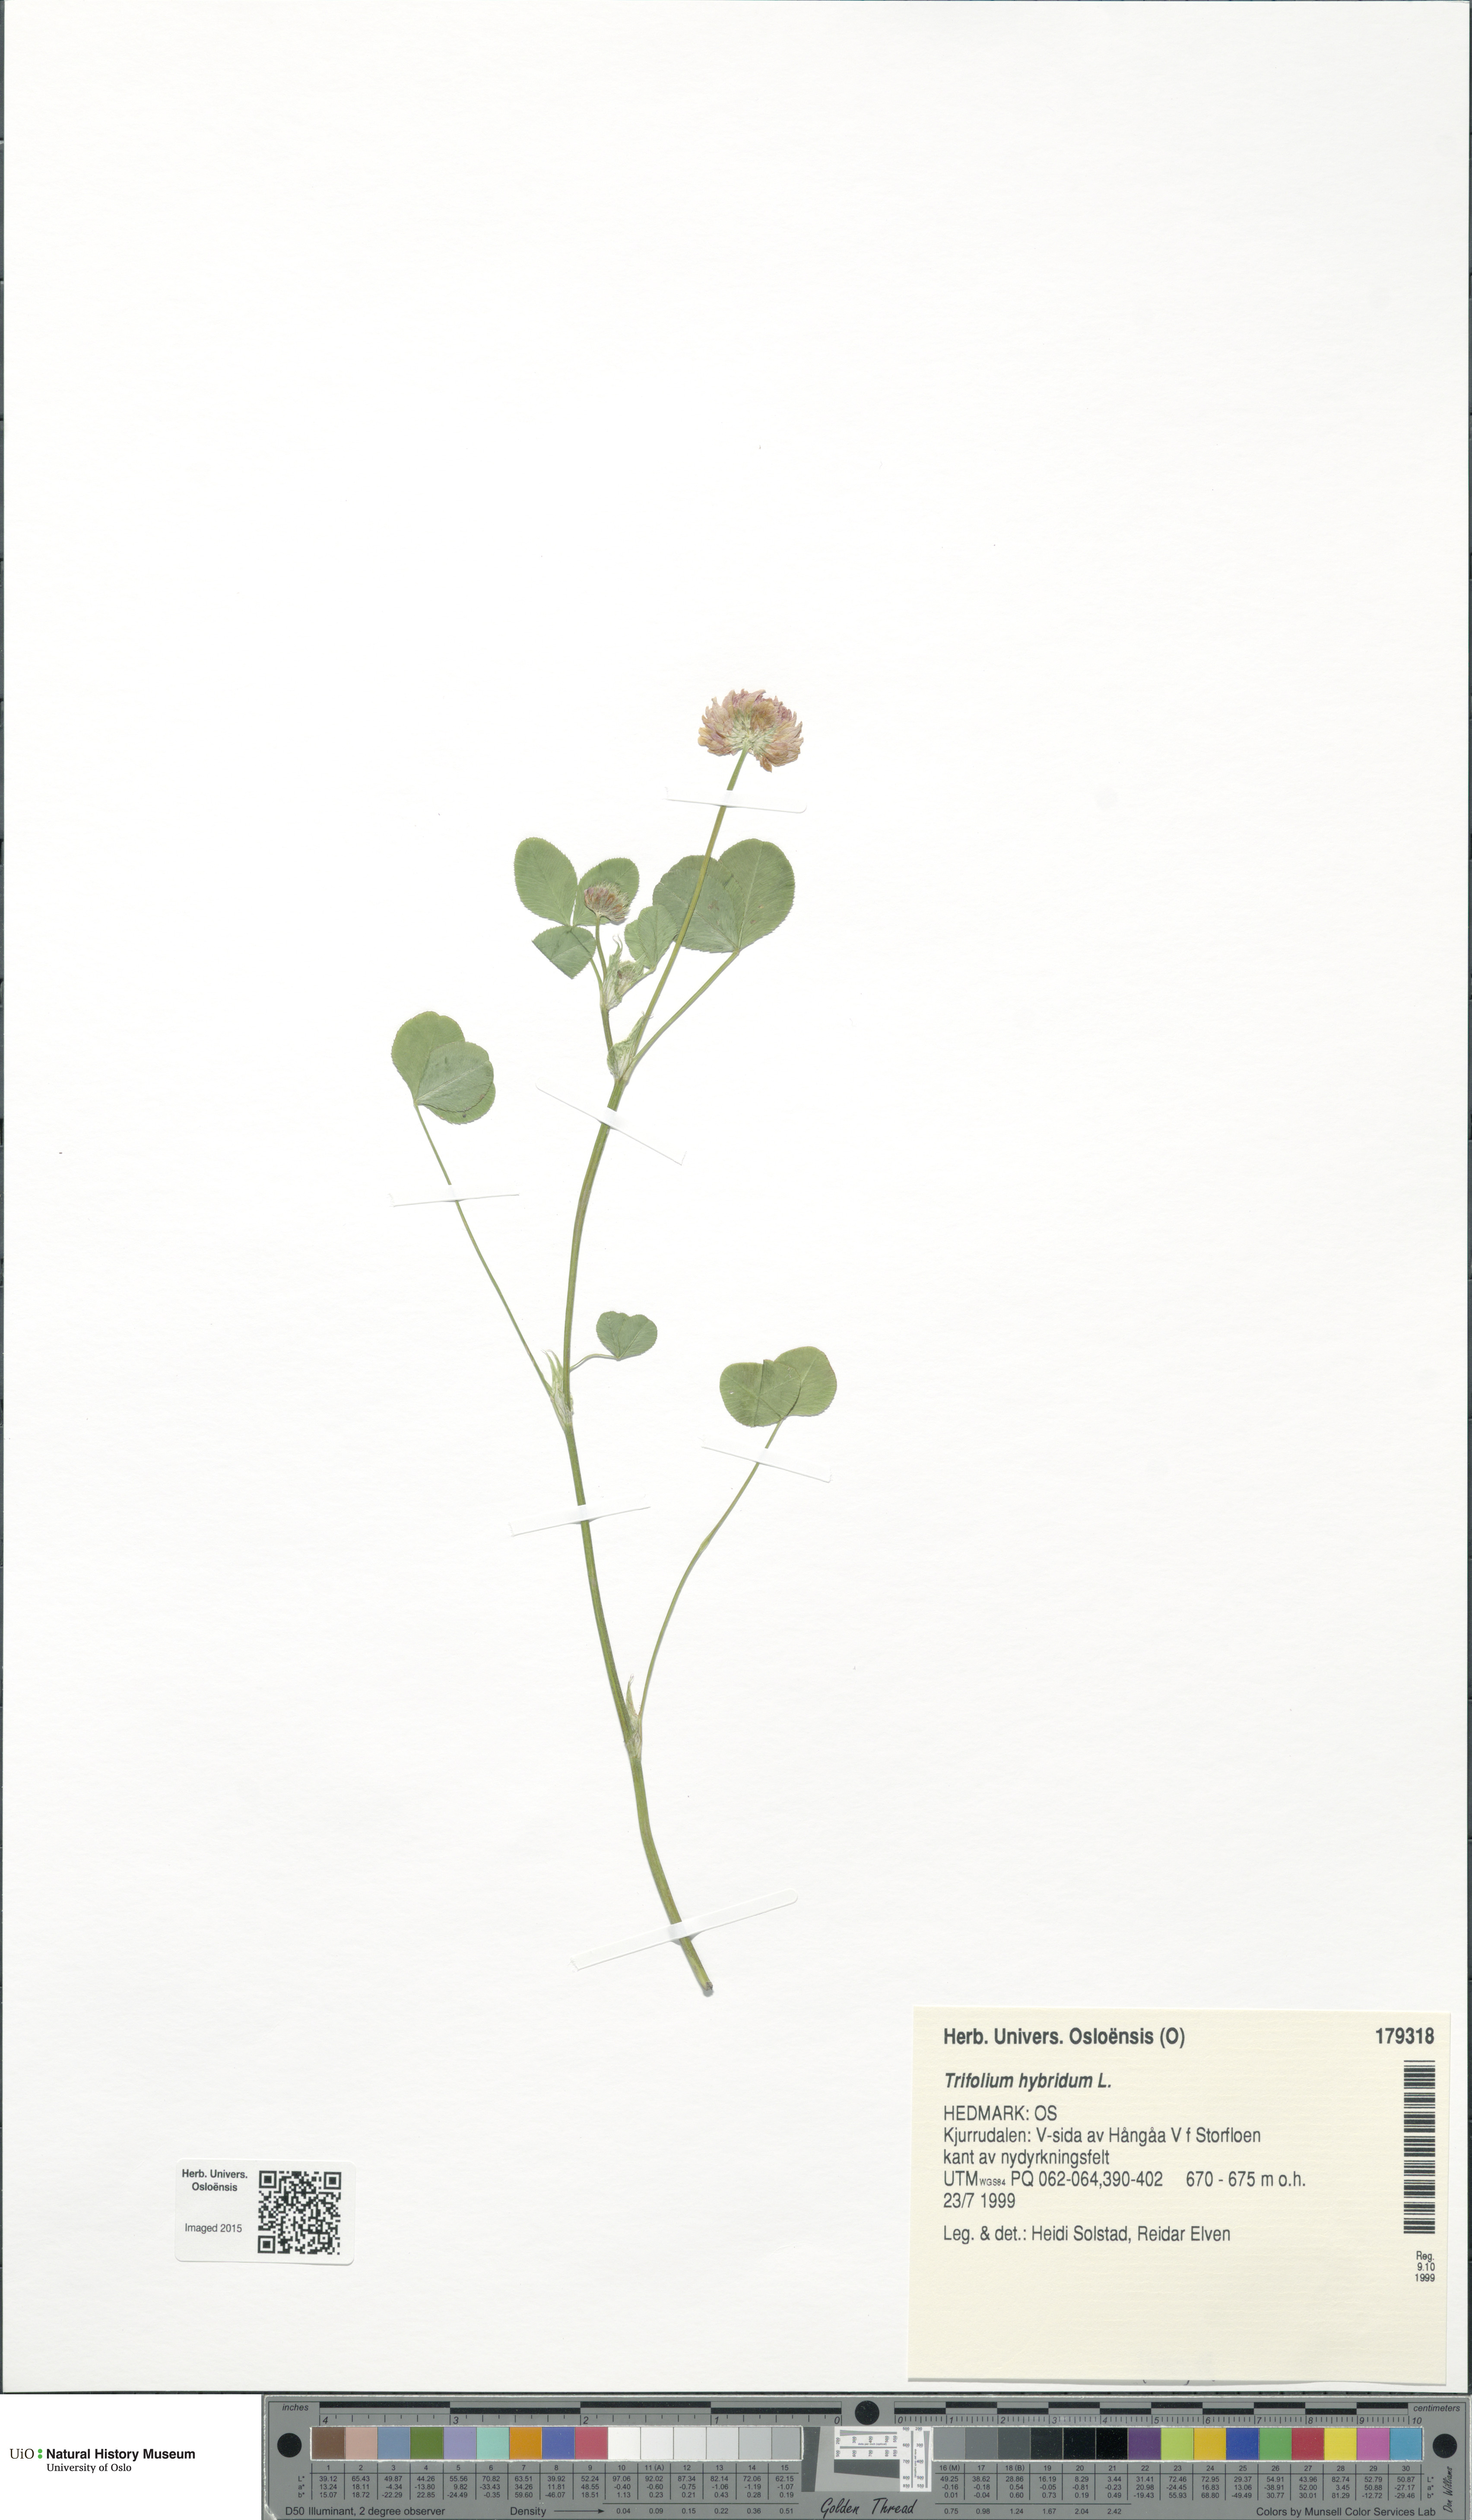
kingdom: Plantae
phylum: Tracheophyta
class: Magnoliopsida
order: Fabales
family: Fabaceae
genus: Trifolium
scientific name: Trifolium hybridum
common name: Alsike clover
